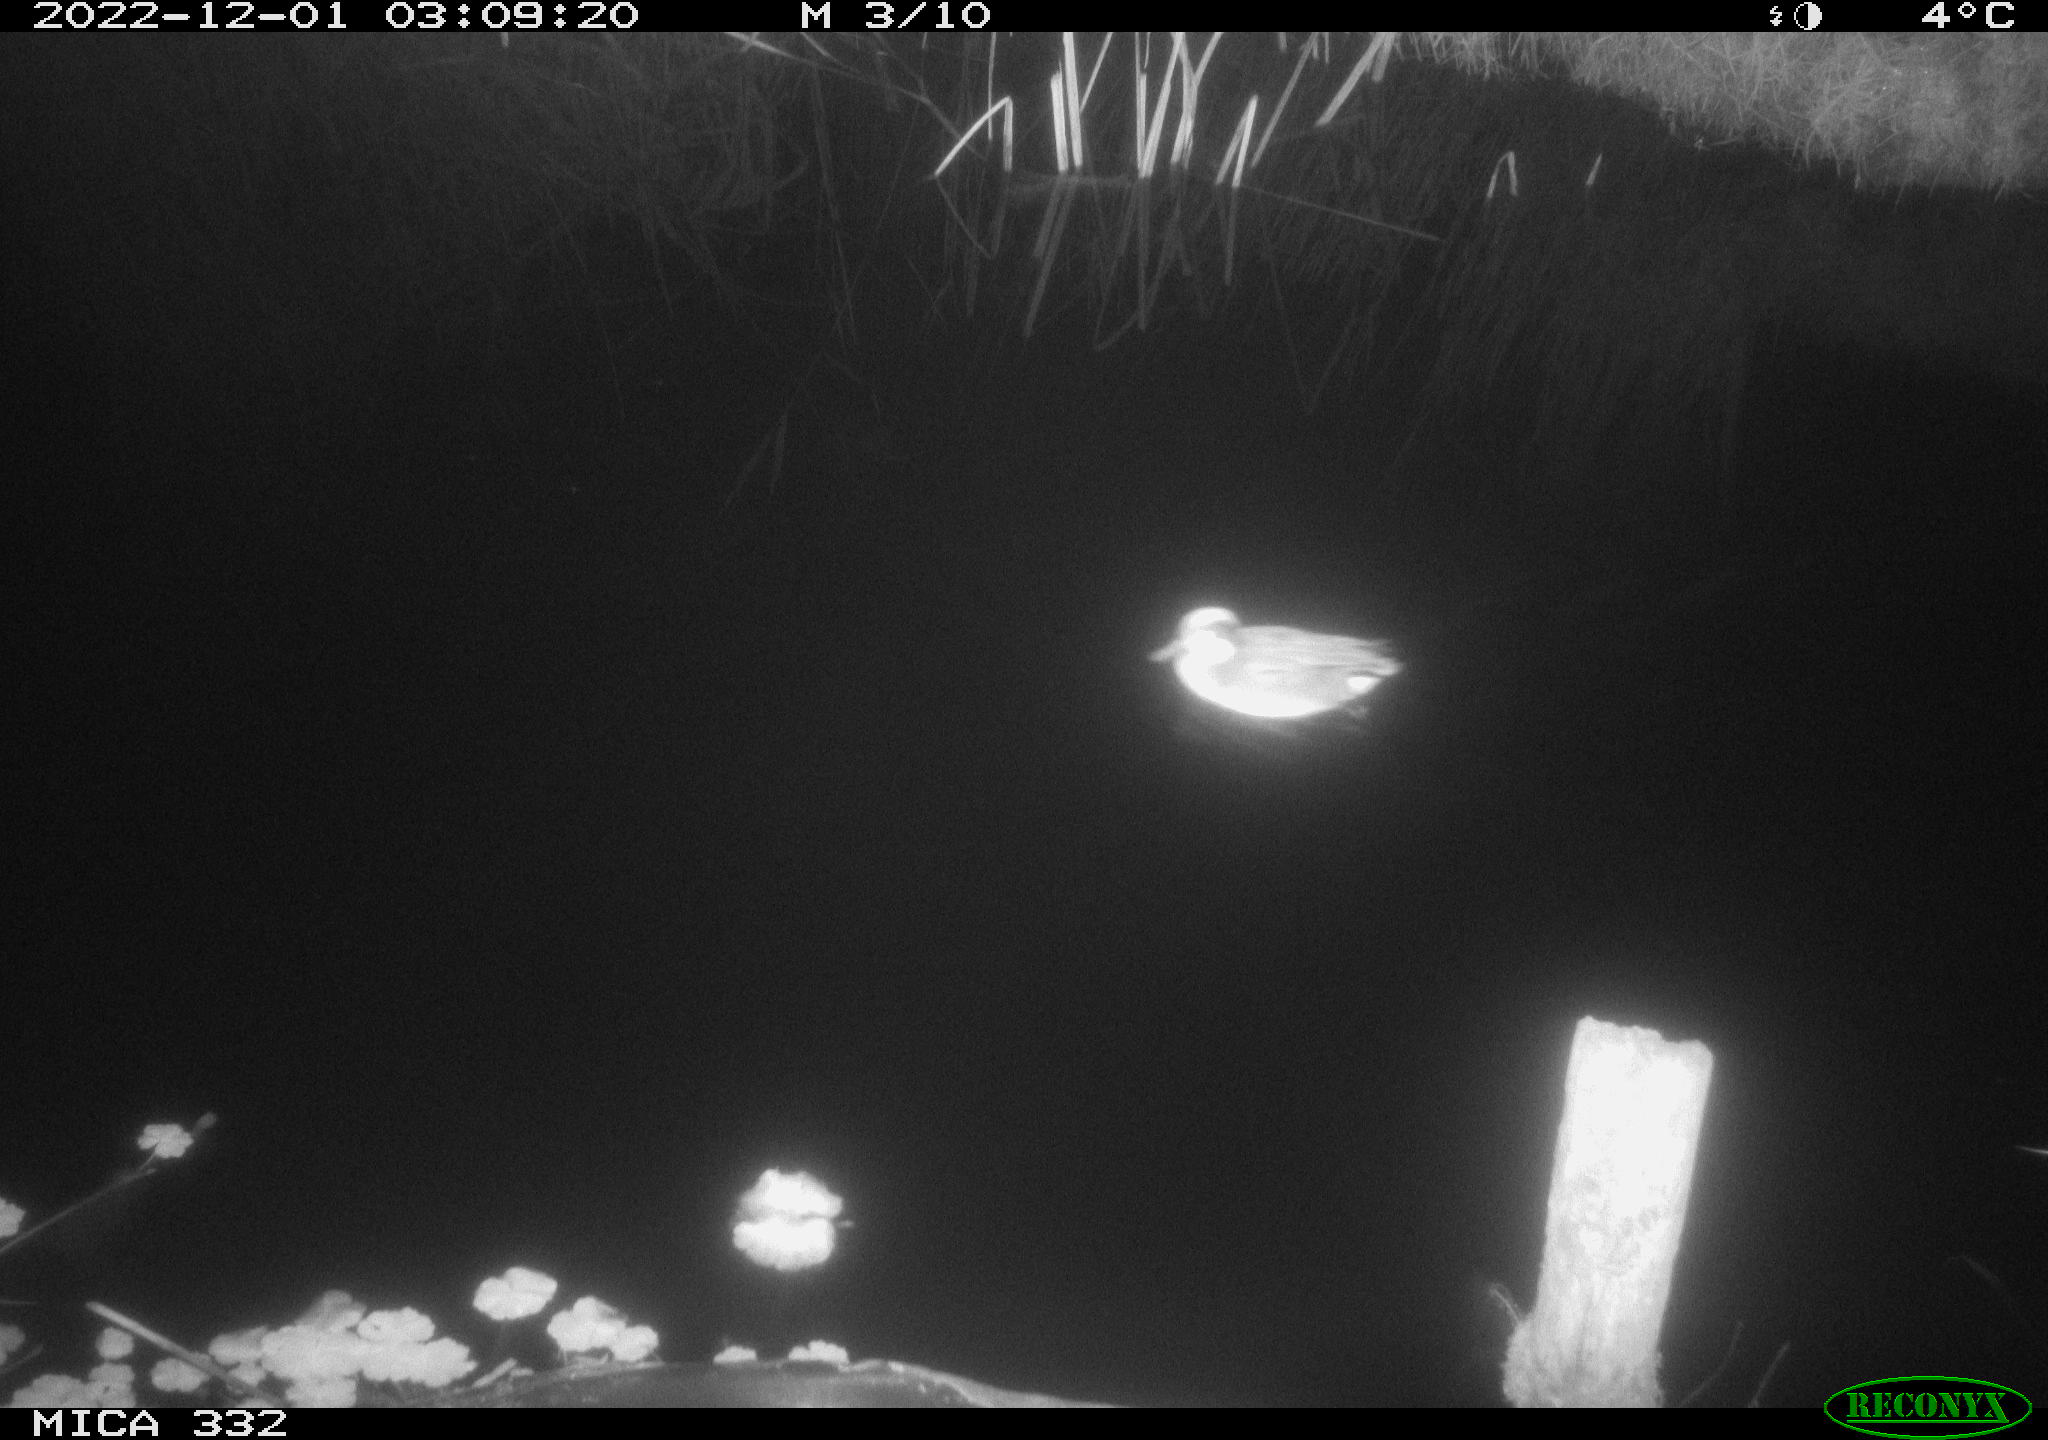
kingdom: Animalia
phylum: Chordata
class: Aves
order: Anseriformes
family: Anatidae
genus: Anas
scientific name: Anas
